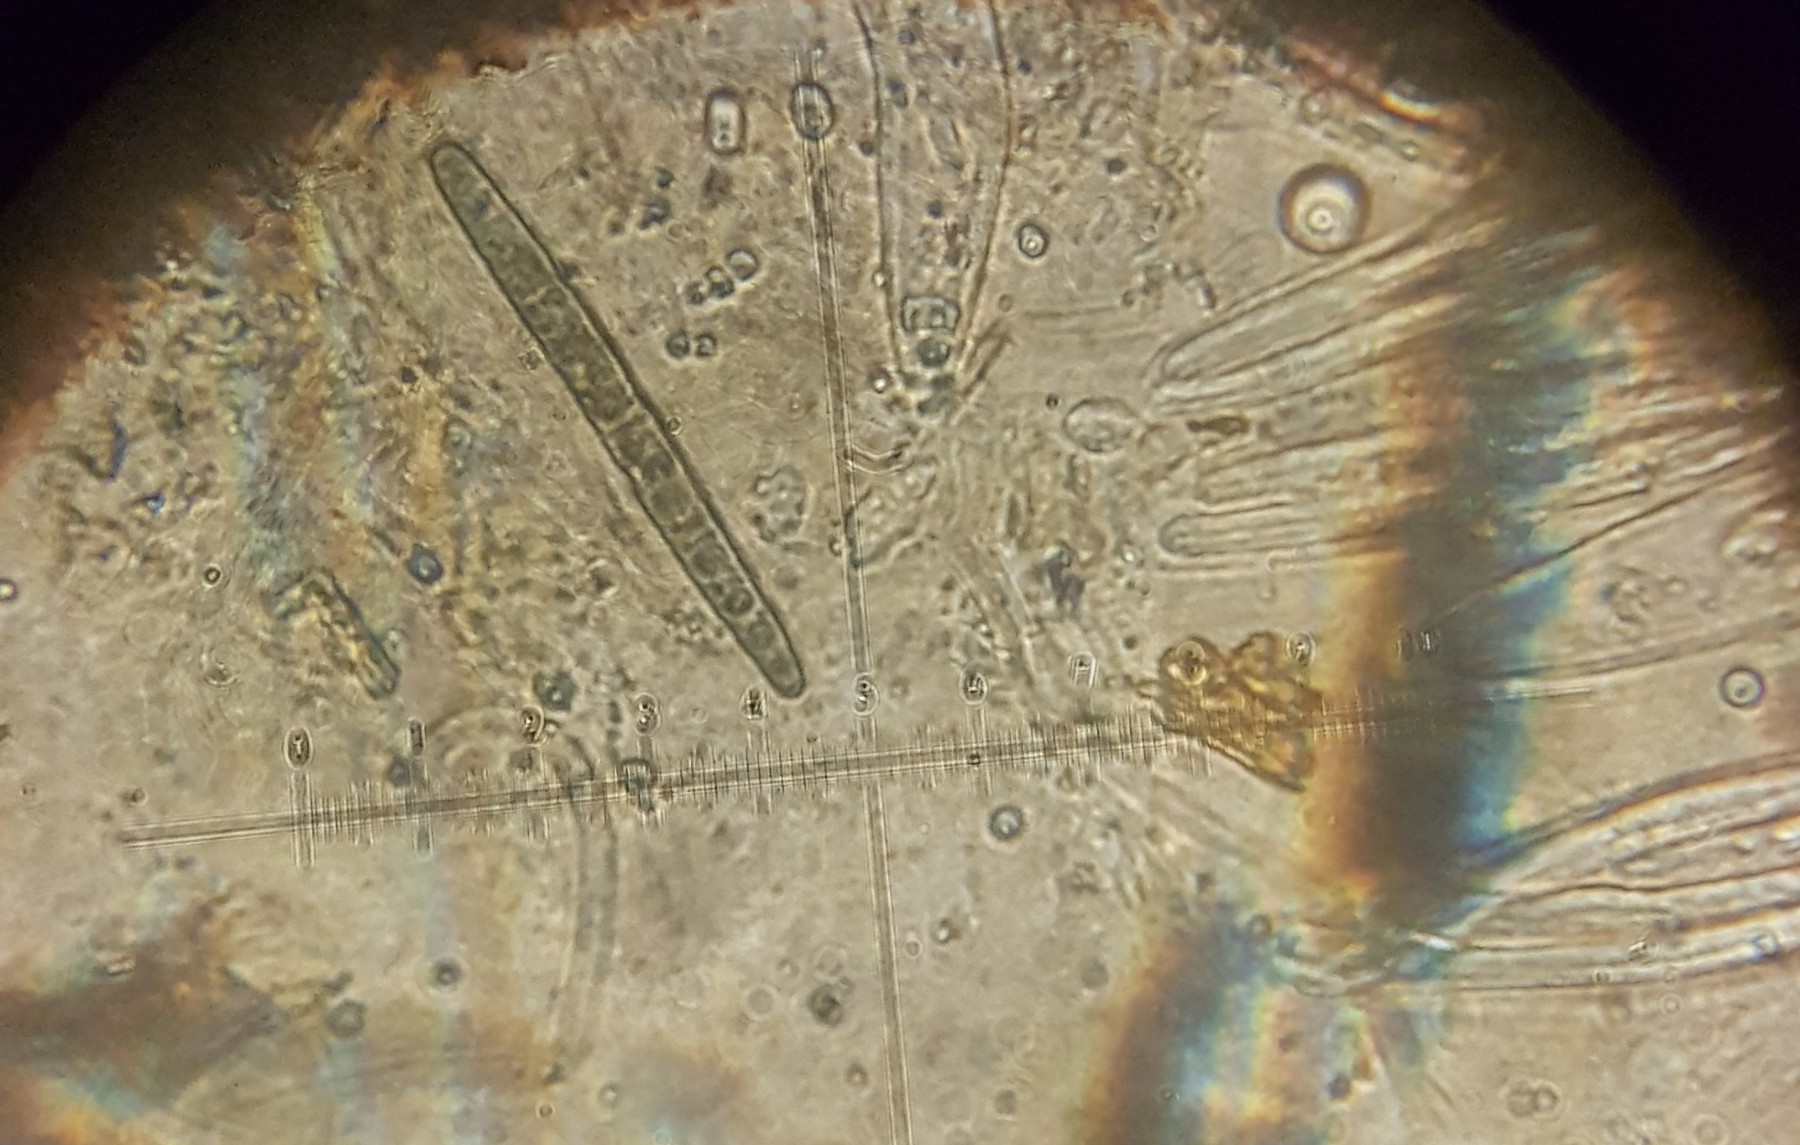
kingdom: Fungi
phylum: Ascomycota
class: Geoglossomycetes
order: Geoglossales
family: Geoglossaceae
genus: Hemileucoglossum
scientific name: Hemileucoglossum elongatum
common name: småsporet jordtunge
